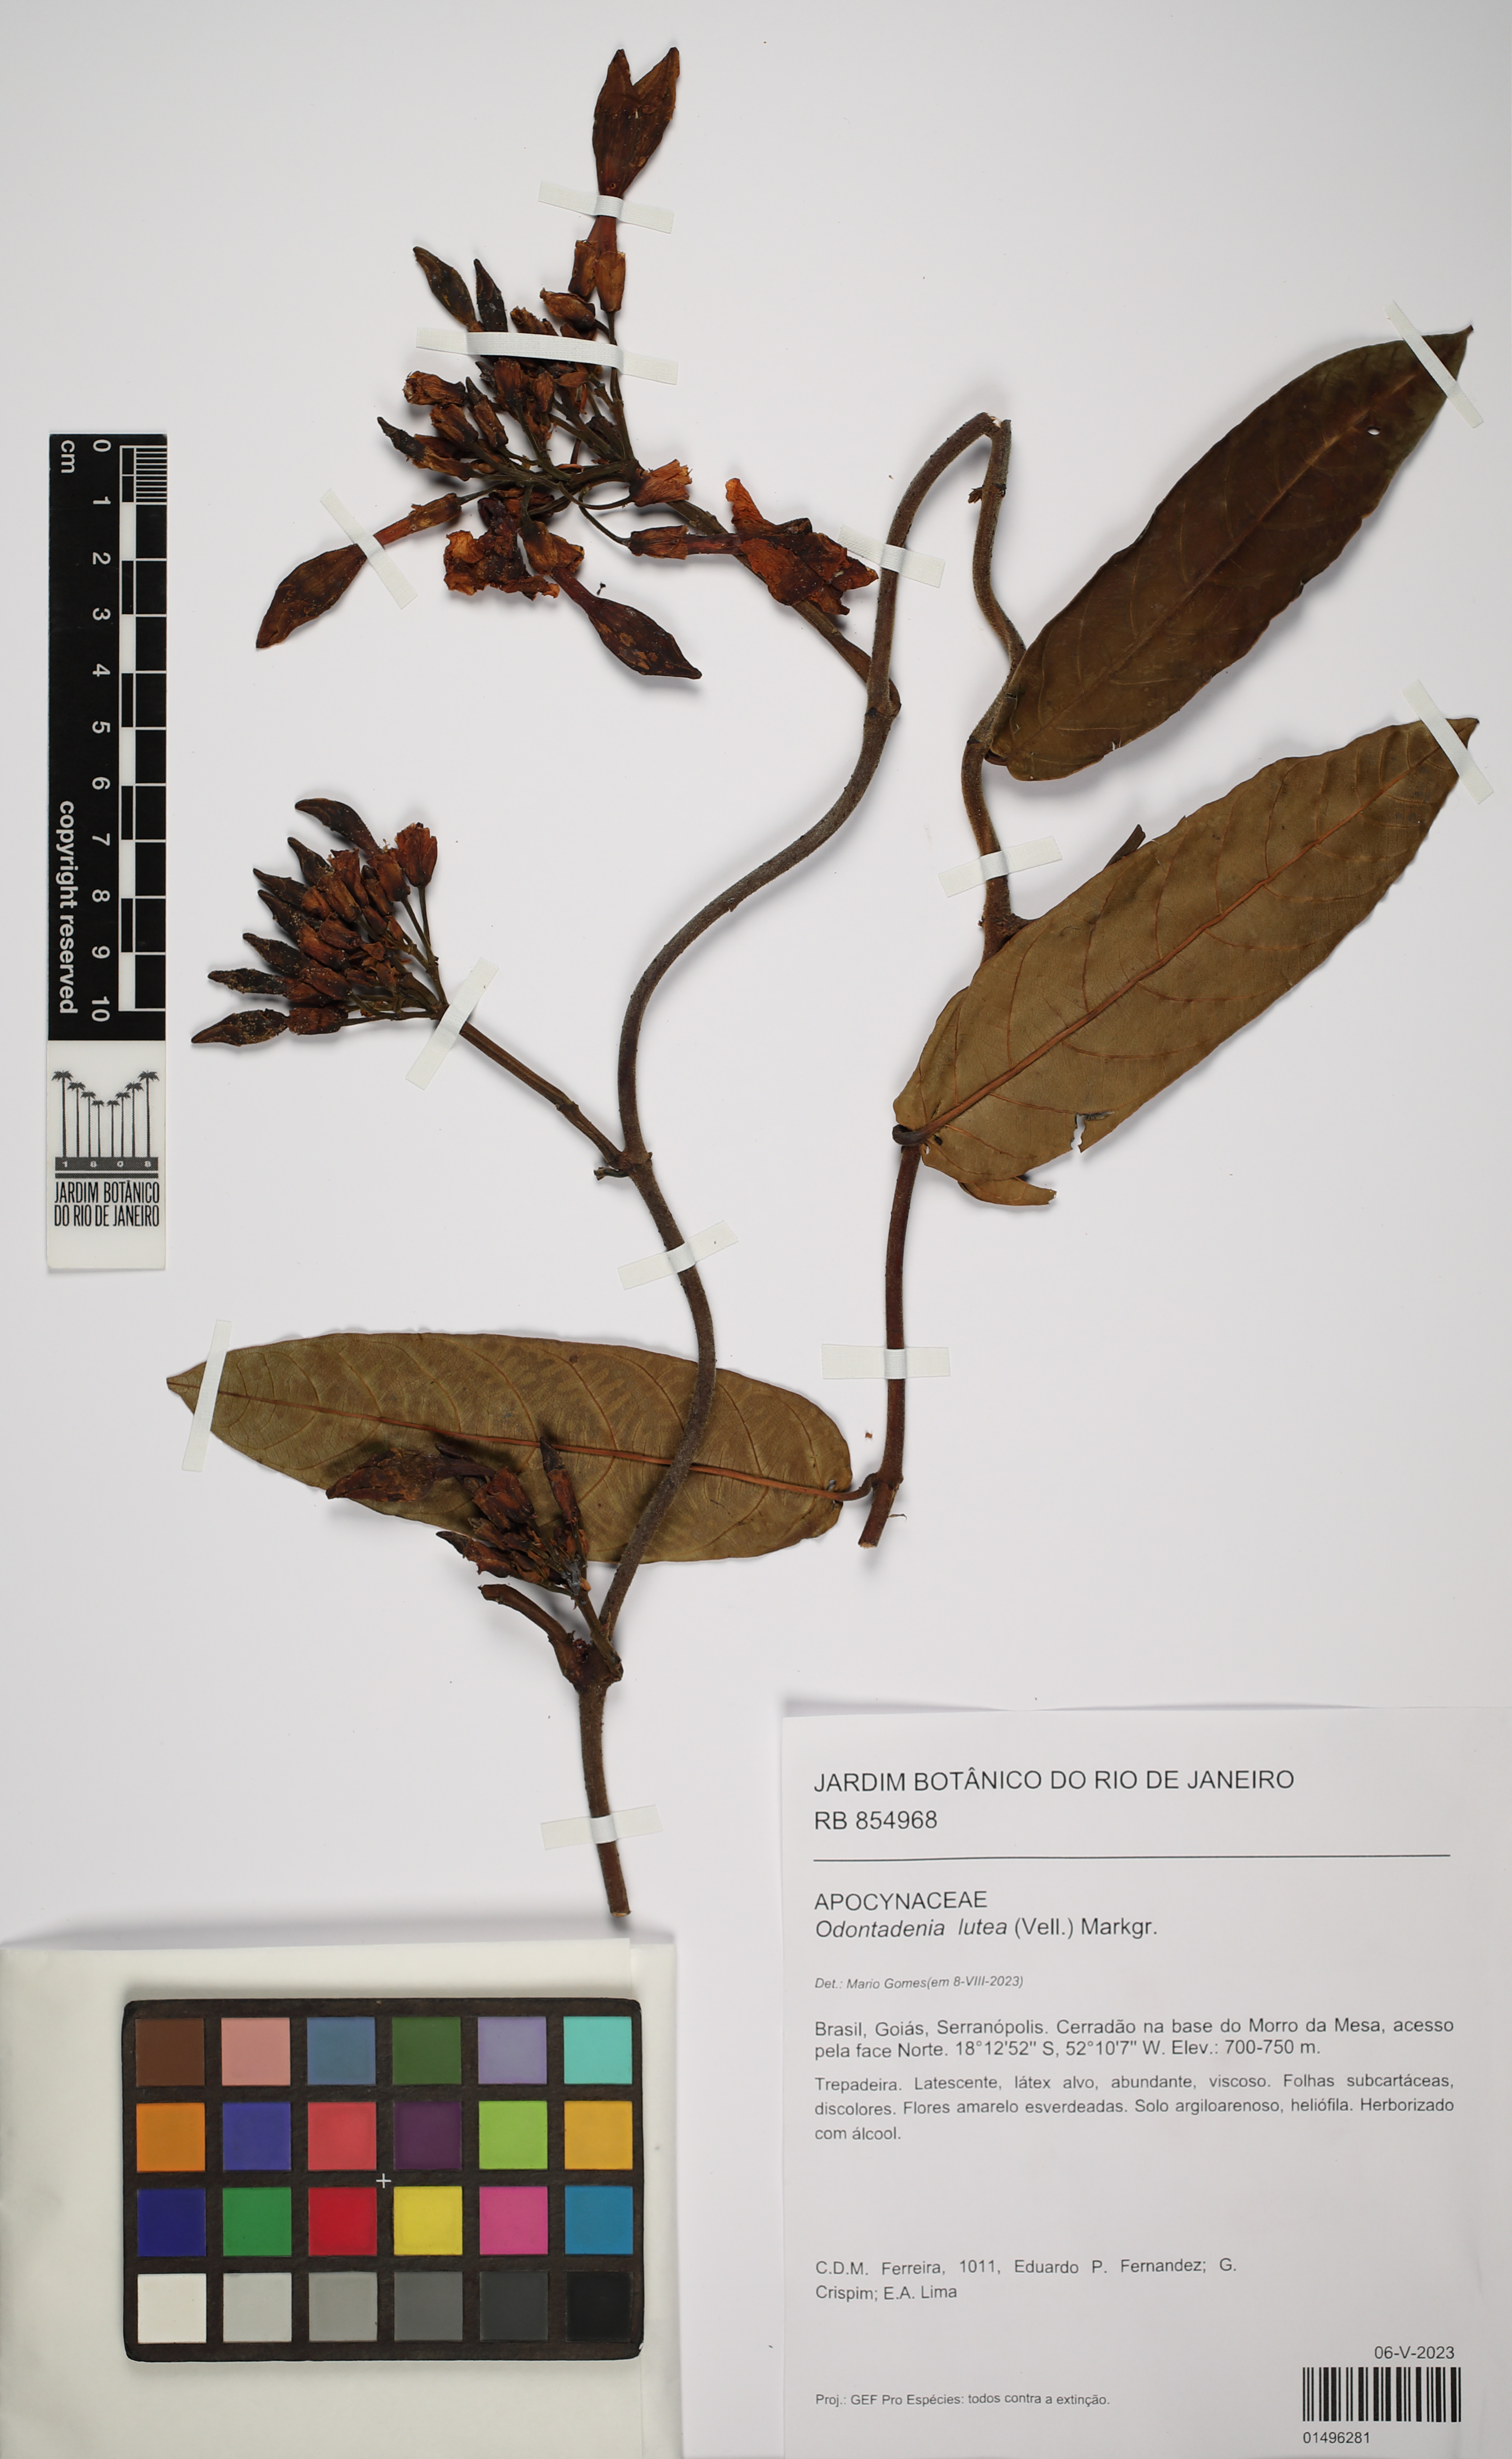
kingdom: Plantae
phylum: Tracheophyta
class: Magnoliopsida
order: Gentianales
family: Apocynaceae
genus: Odontadenia
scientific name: Odontadenia lutea
